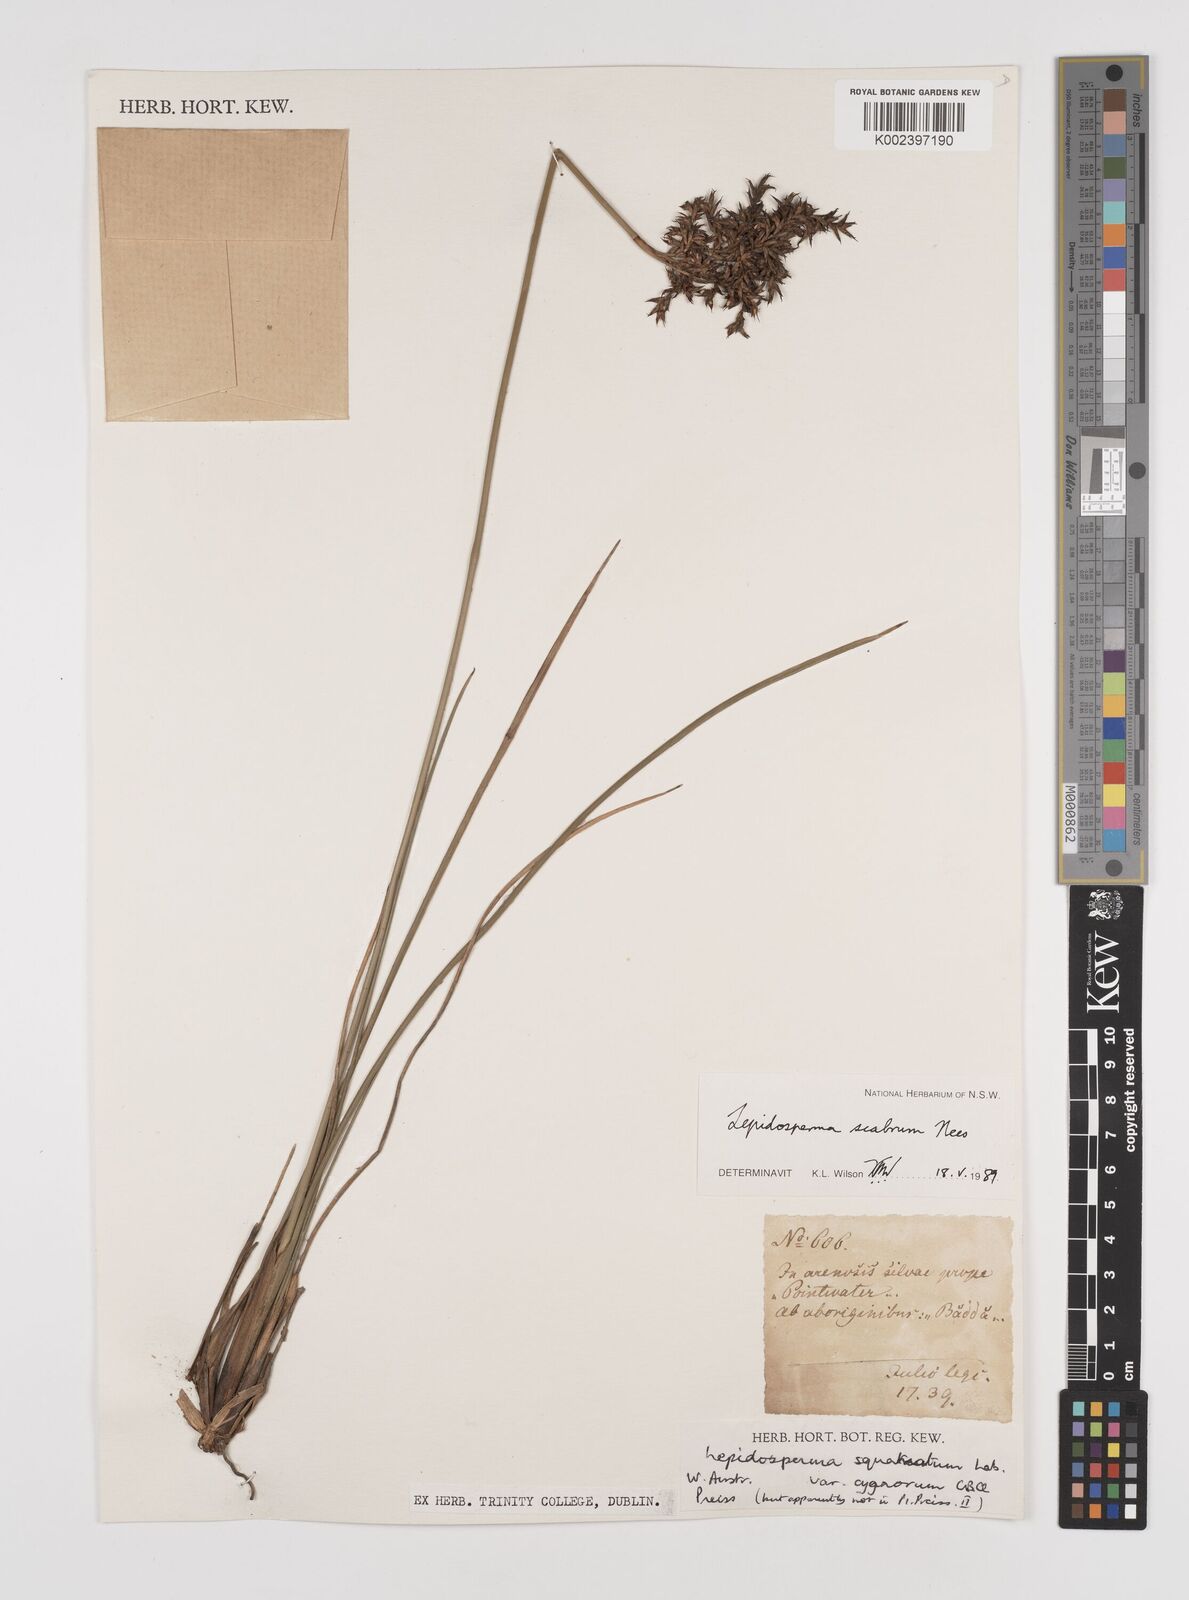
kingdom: Plantae
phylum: Tracheophyta
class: Liliopsida
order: Poales
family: Cyperaceae
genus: Lepidosperma
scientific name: Lepidosperma scabrum
